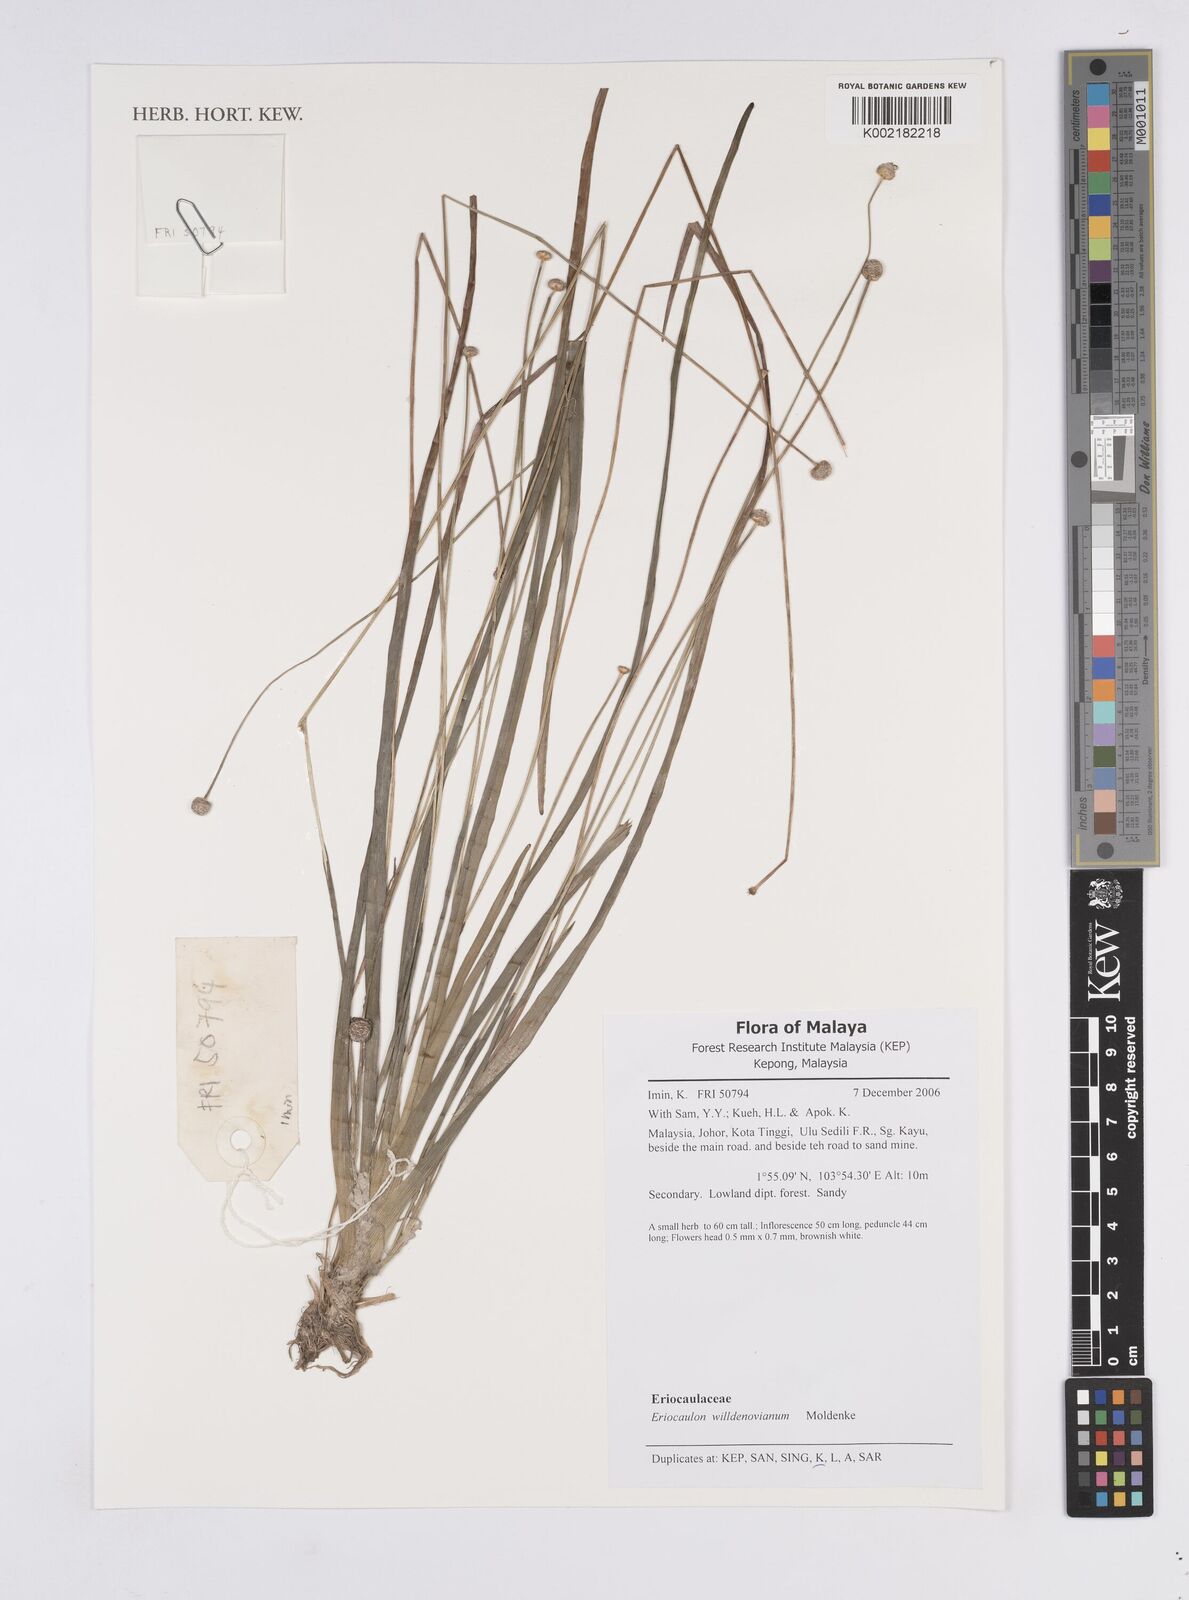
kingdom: Plantae
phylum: Tracheophyta
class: Liliopsida
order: Poales
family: Eriocaulaceae
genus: Eriocaulon
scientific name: Eriocaulon willdenovianum
